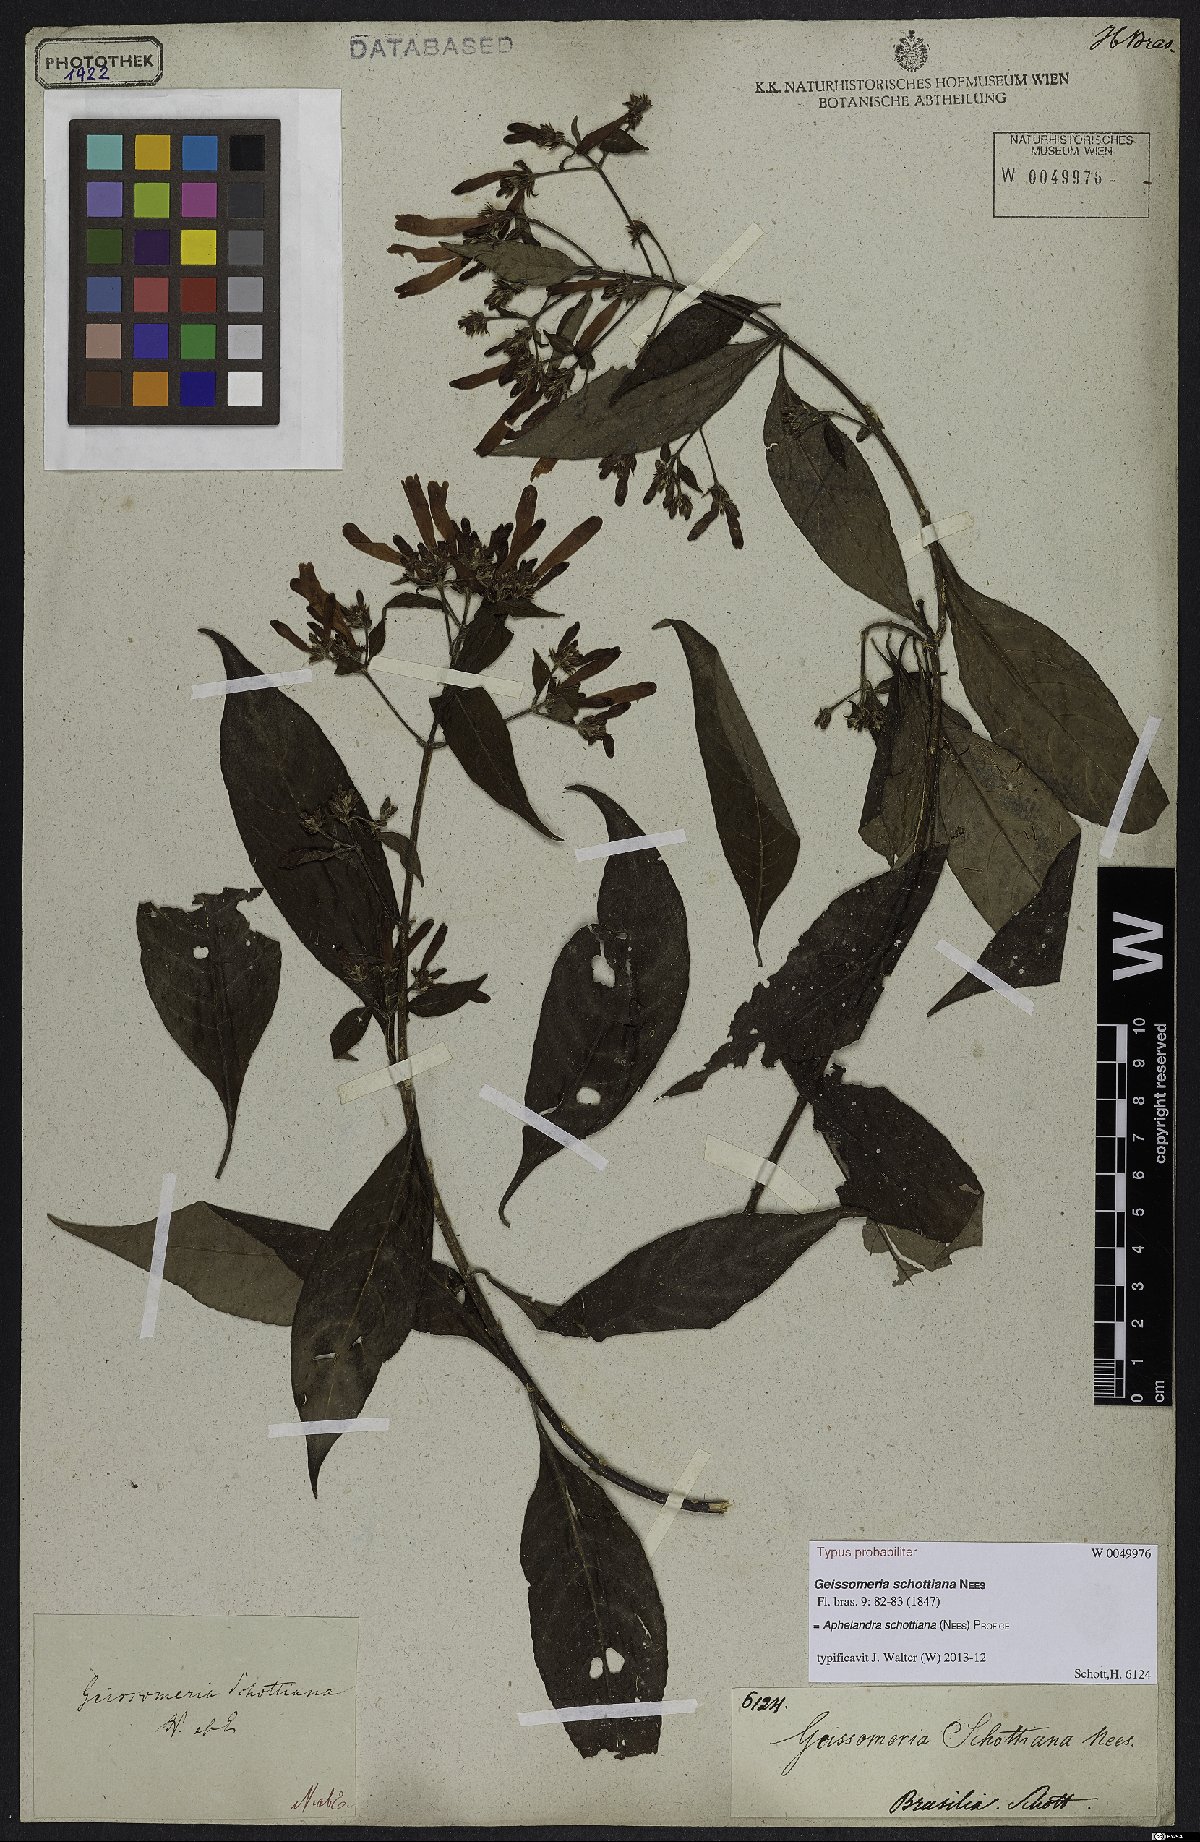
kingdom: Plantae
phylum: Tracheophyta
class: Magnoliopsida
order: Lamiales
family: Acanthaceae
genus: Aphelandra
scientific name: Aphelandra schottiana
